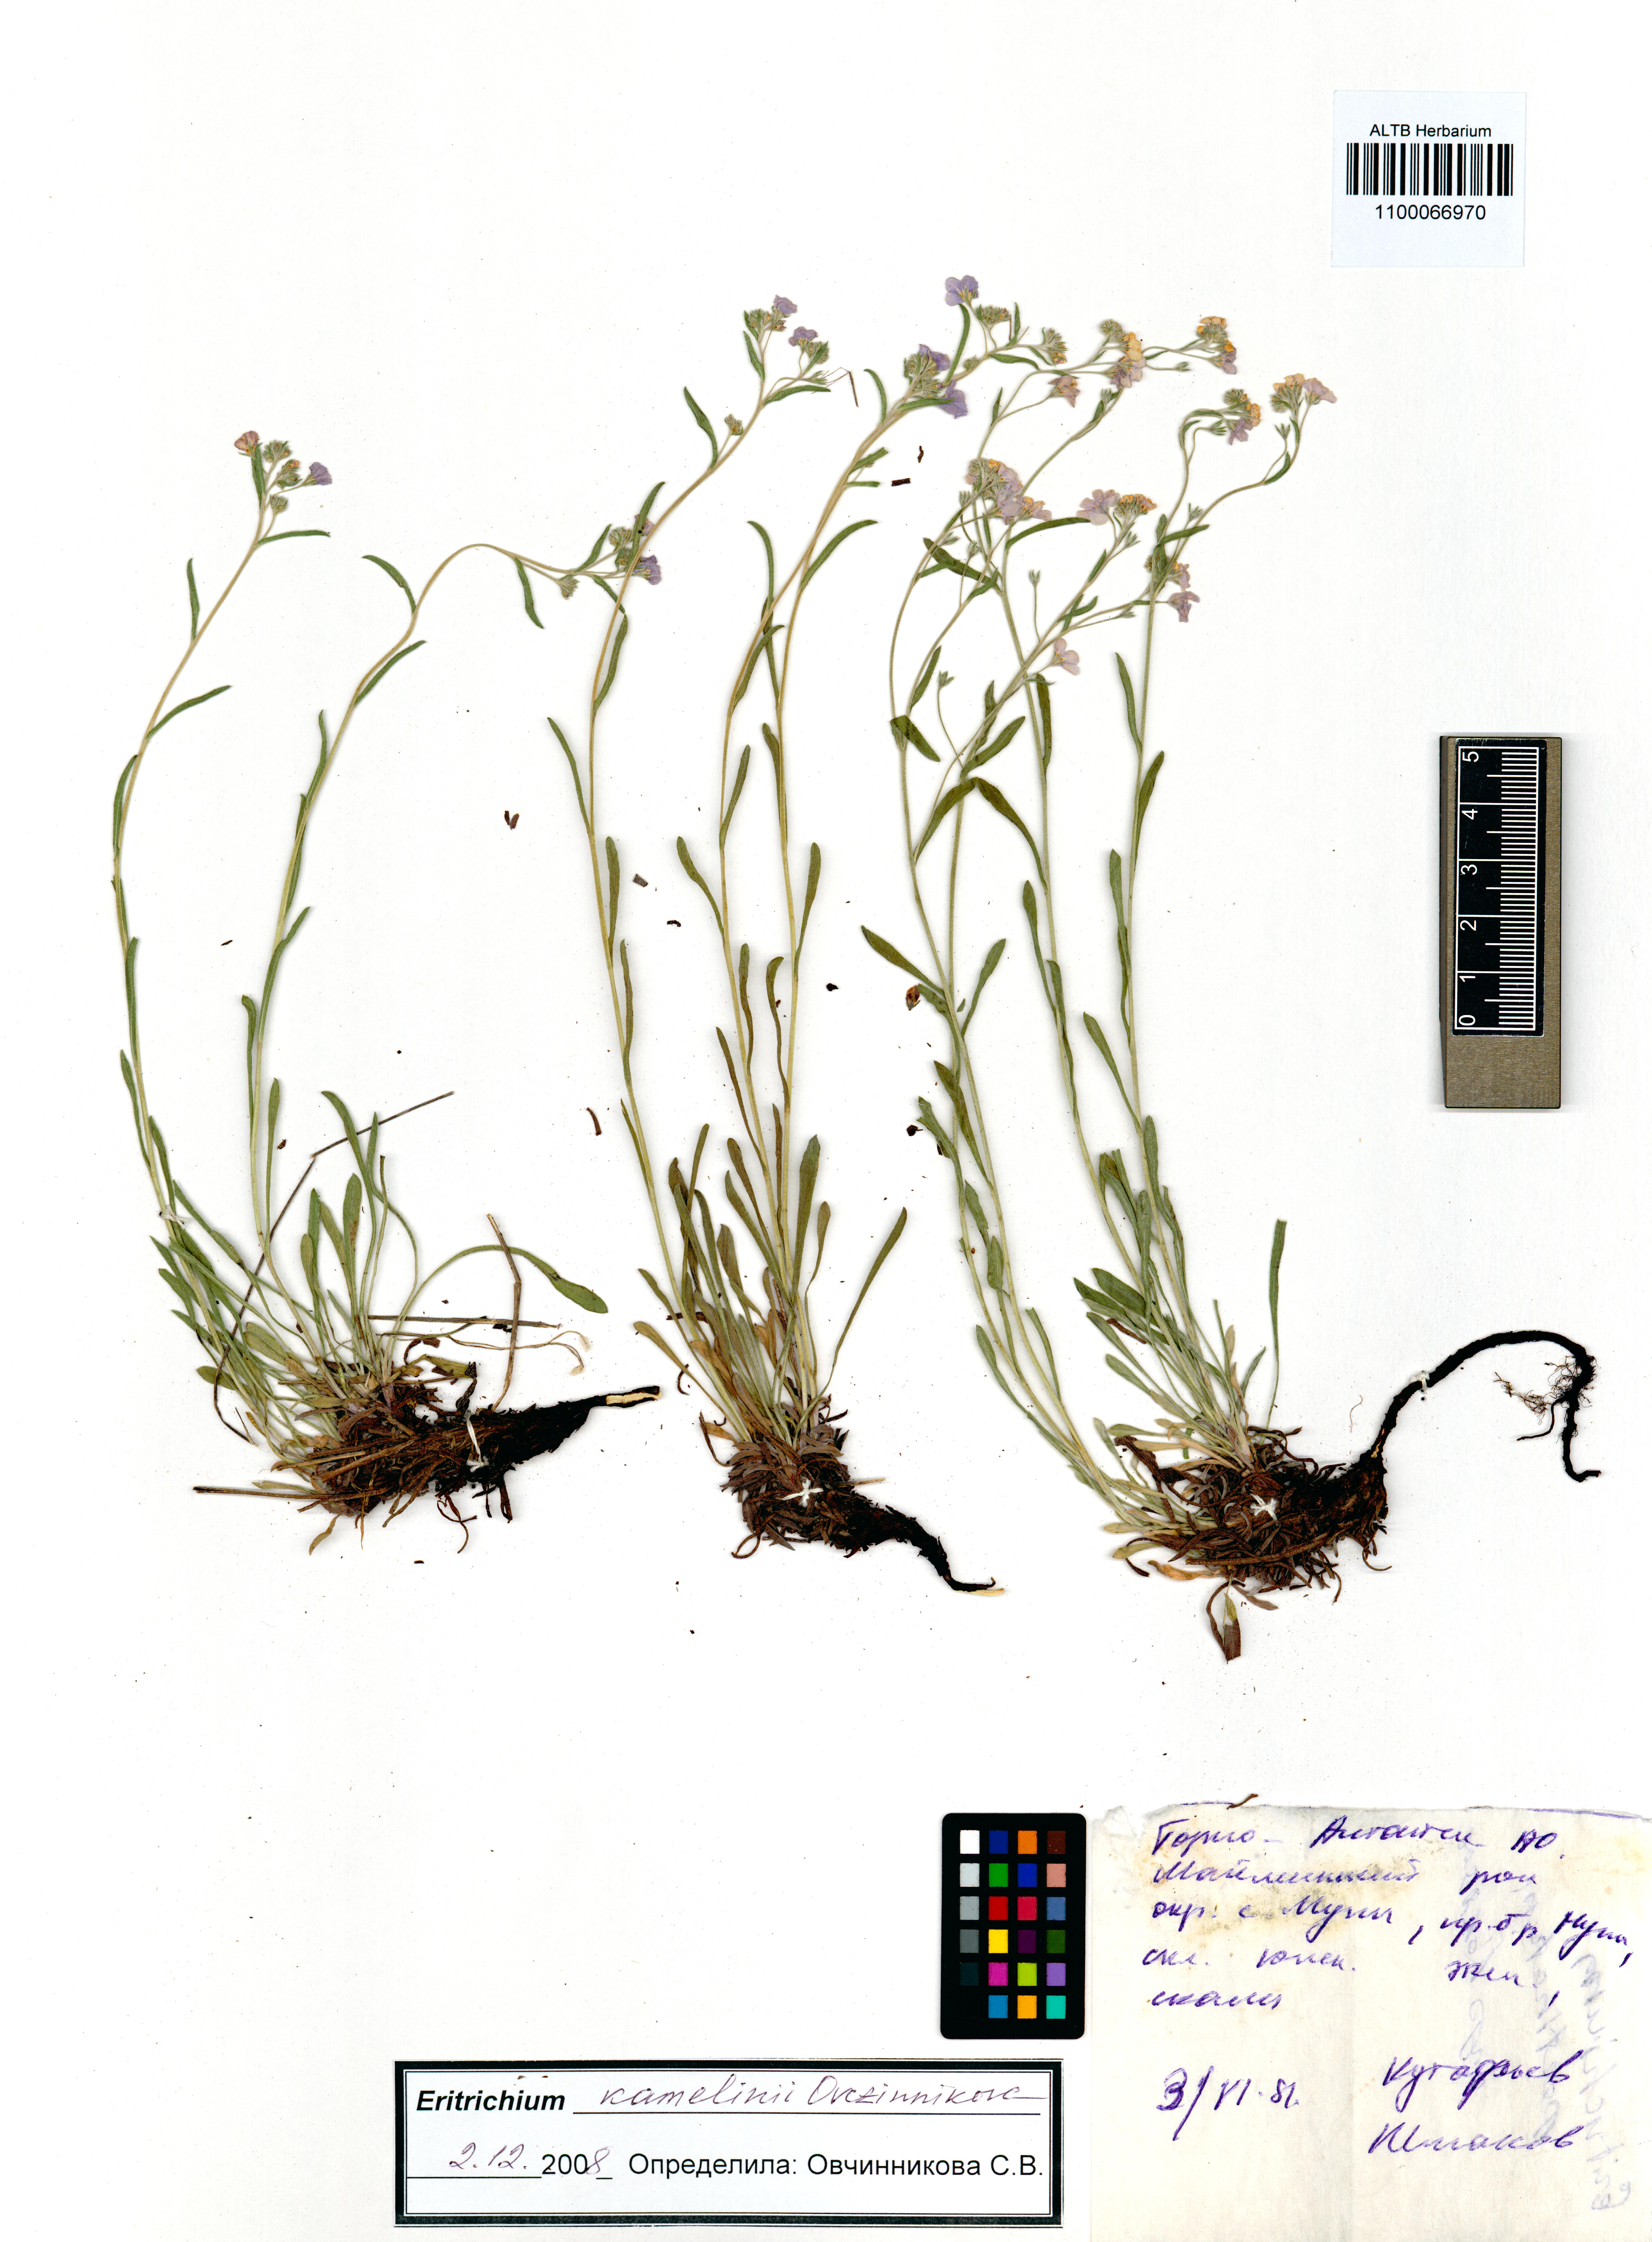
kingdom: Plantae
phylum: Tracheophyta
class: Magnoliopsida
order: Boraginales
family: Boraginaceae
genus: Eritrichium
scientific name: Eritrichium kamelinii
